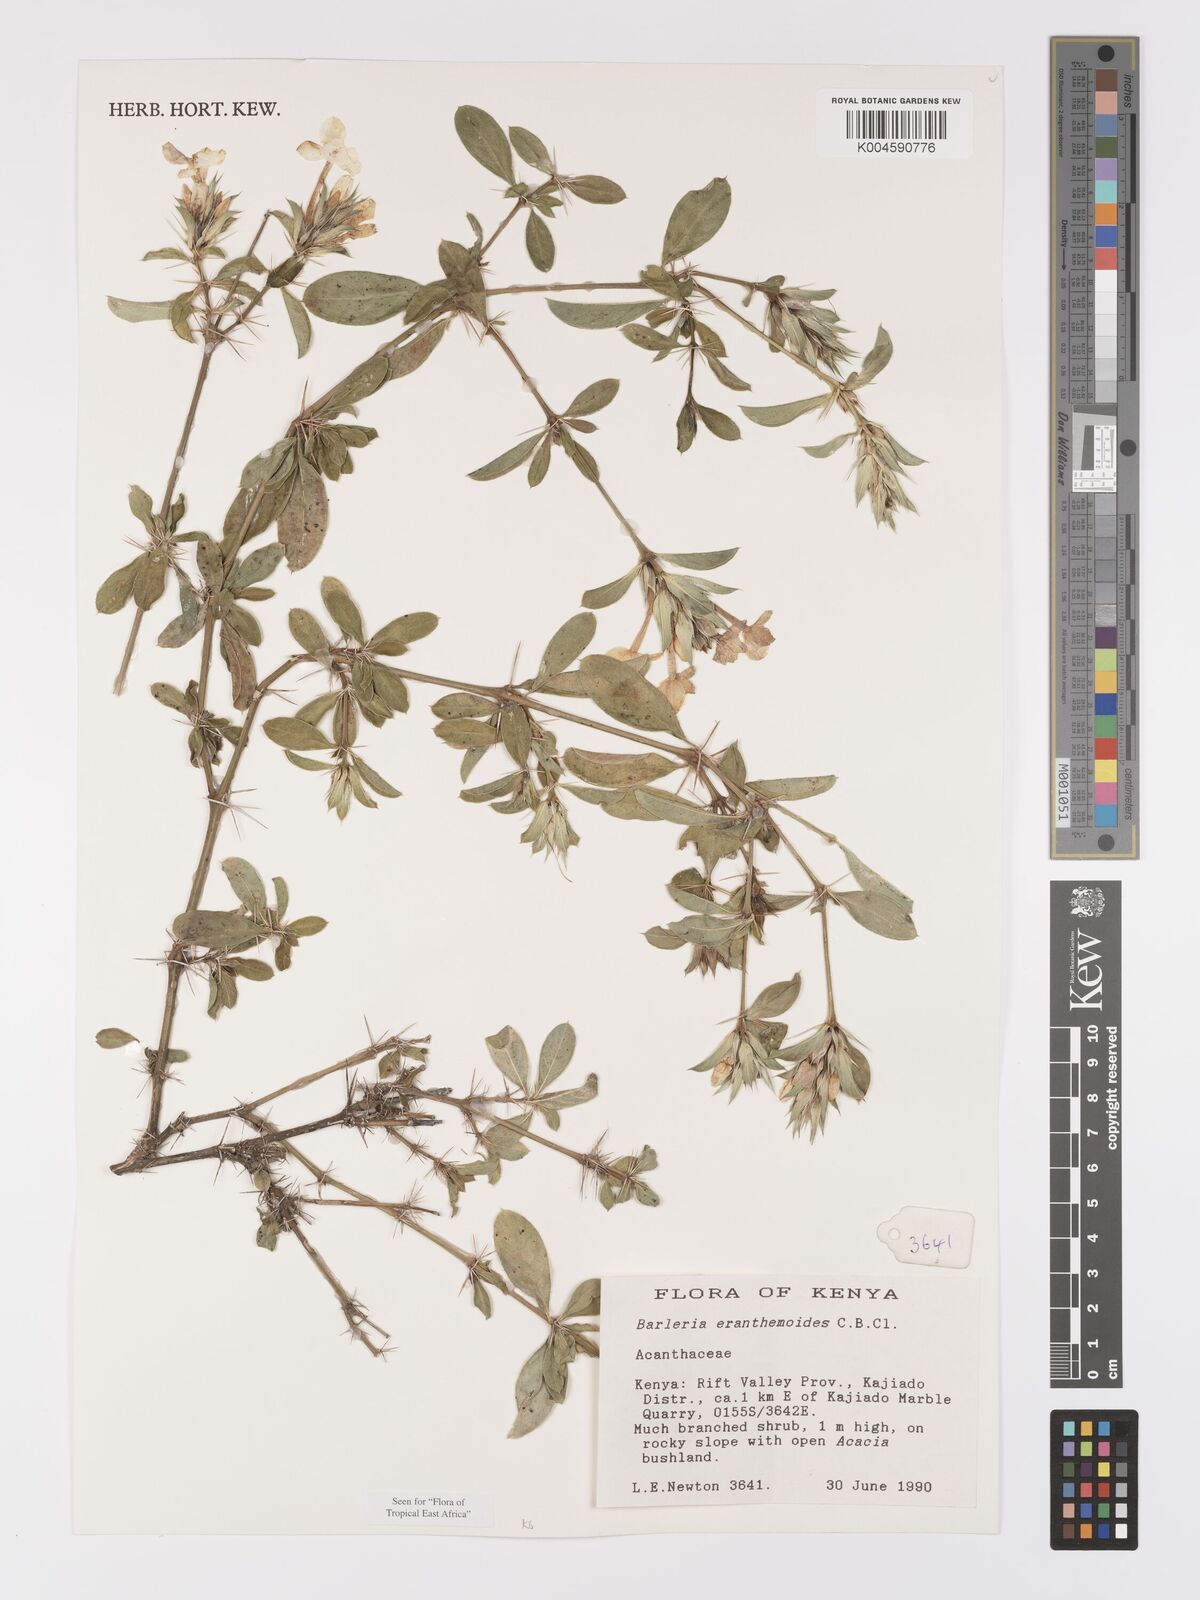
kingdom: Plantae
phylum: Tracheophyta
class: Magnoliopsida
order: Lamiales
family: Acanthaceae
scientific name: Acanthaceae
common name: Acanthaceae
